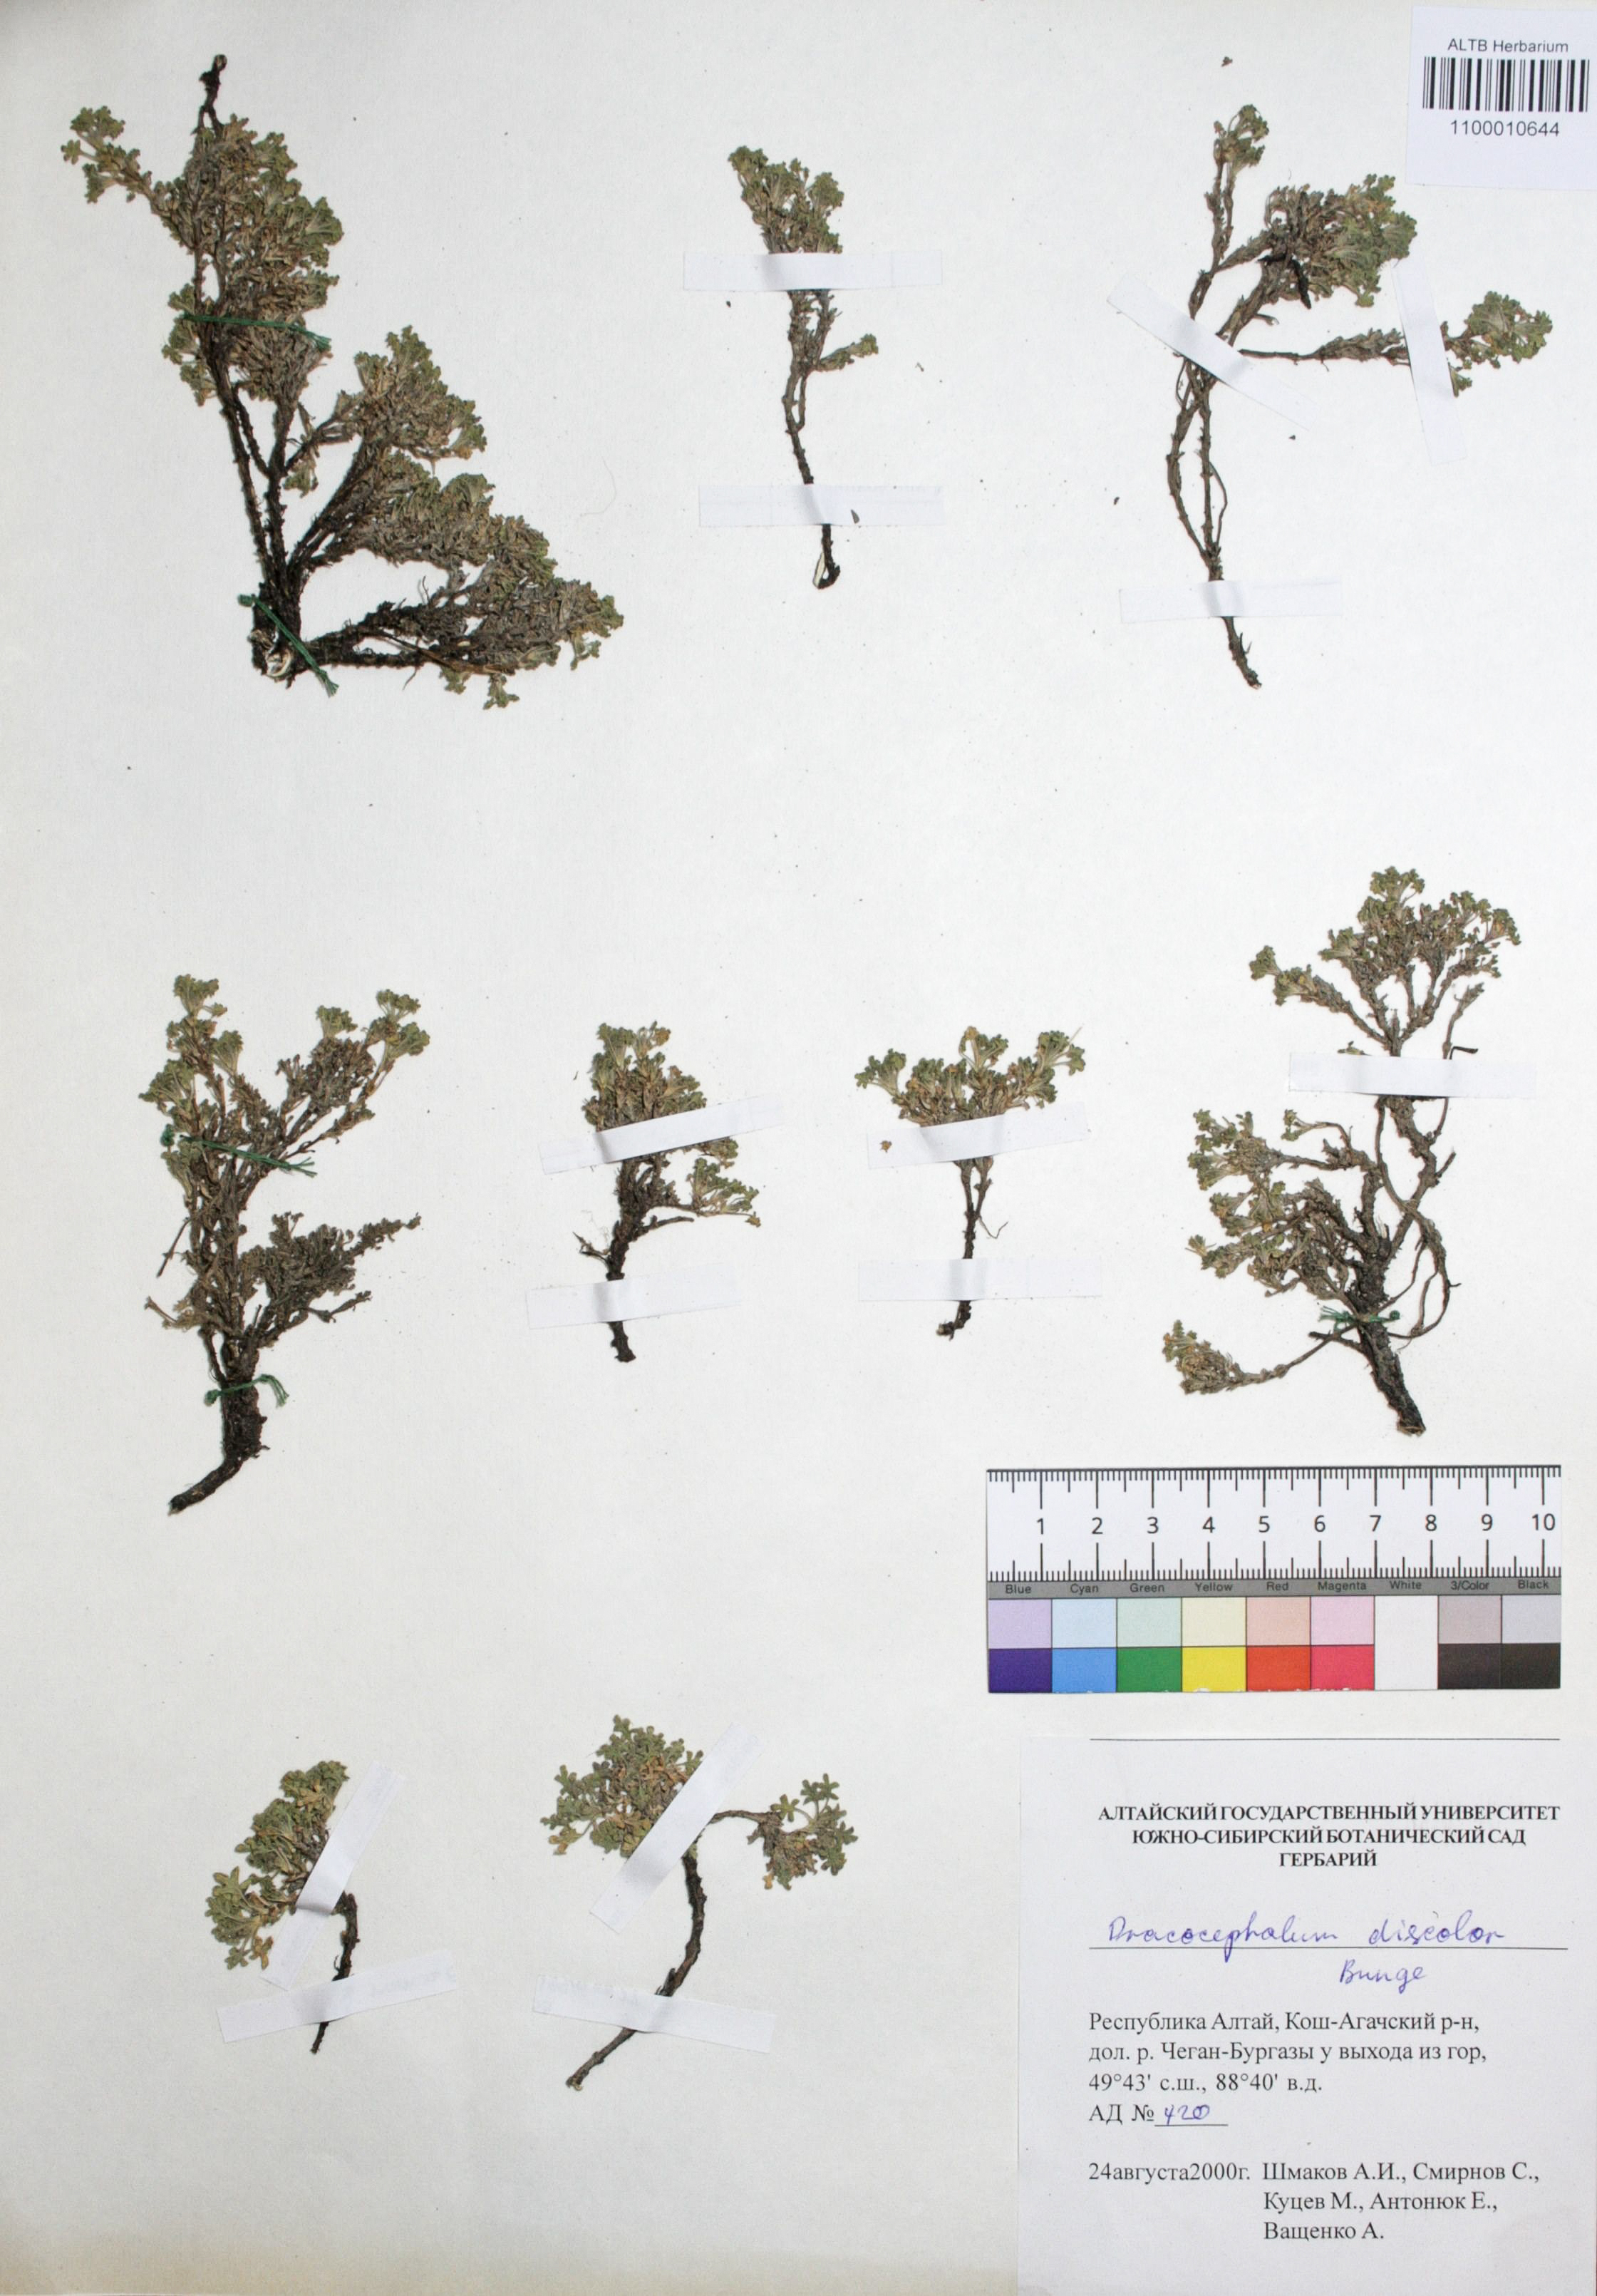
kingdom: Plantae
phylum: Tracheophyta
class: Magnoliopsida
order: Lamiales
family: Lamiaceae
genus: Dracocephalum
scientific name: Dracocephalum discolor
